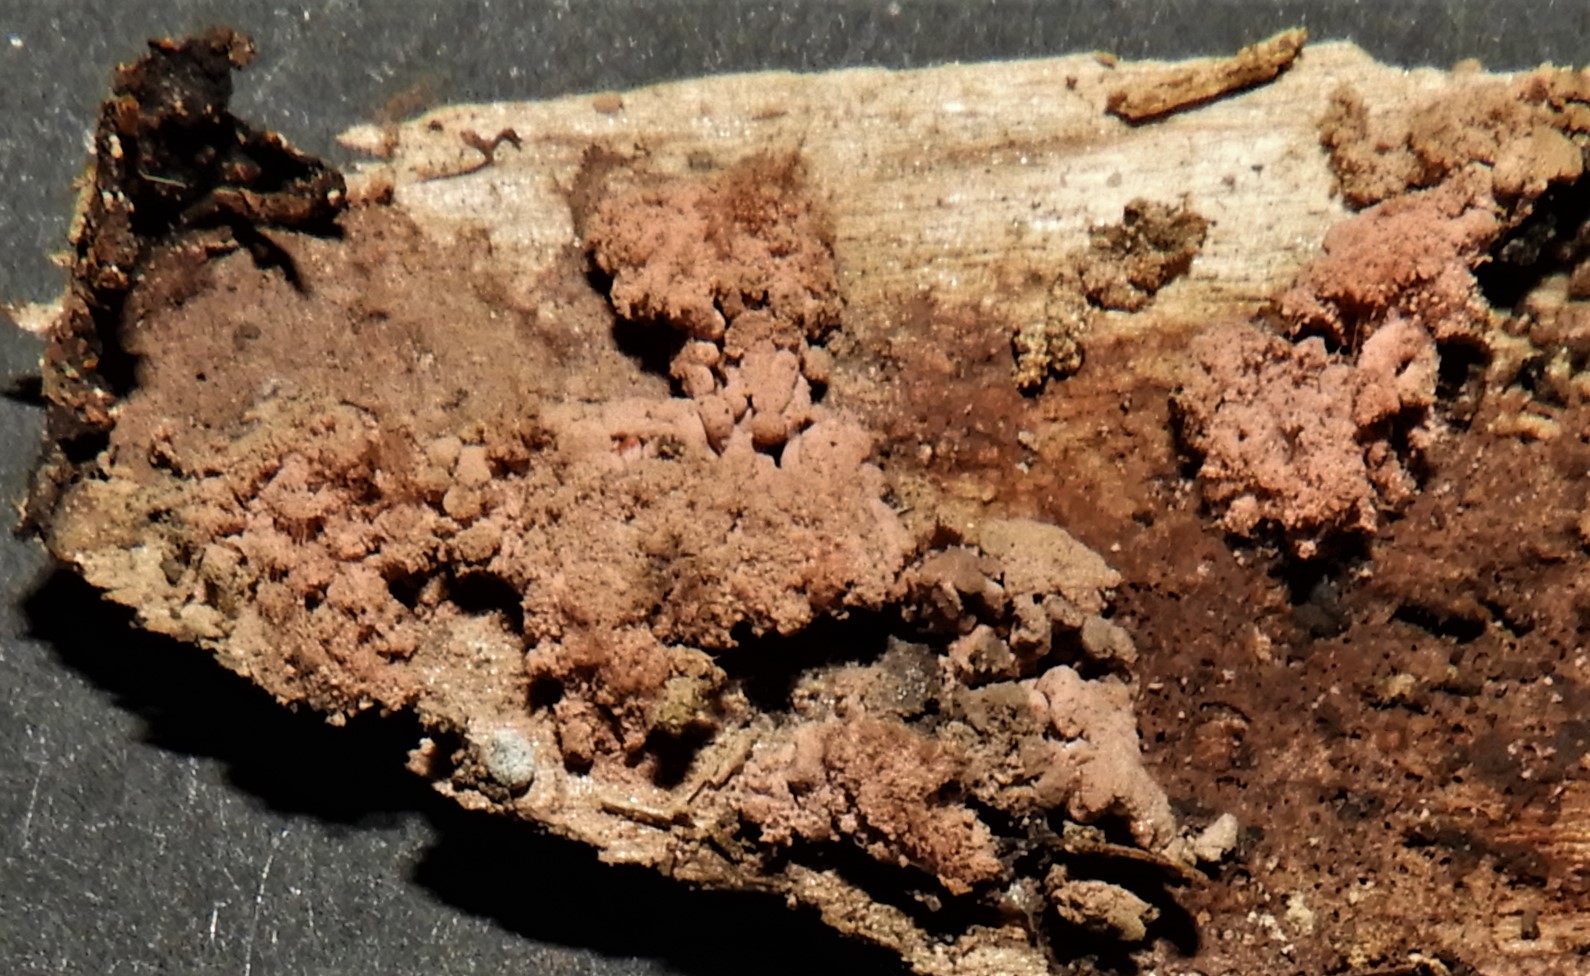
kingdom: Protozoa
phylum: Mycetozoa
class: Myxomycetes
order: Trichiales
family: Arcyriaceae
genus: Arcyria
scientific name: Arcyria stipata
